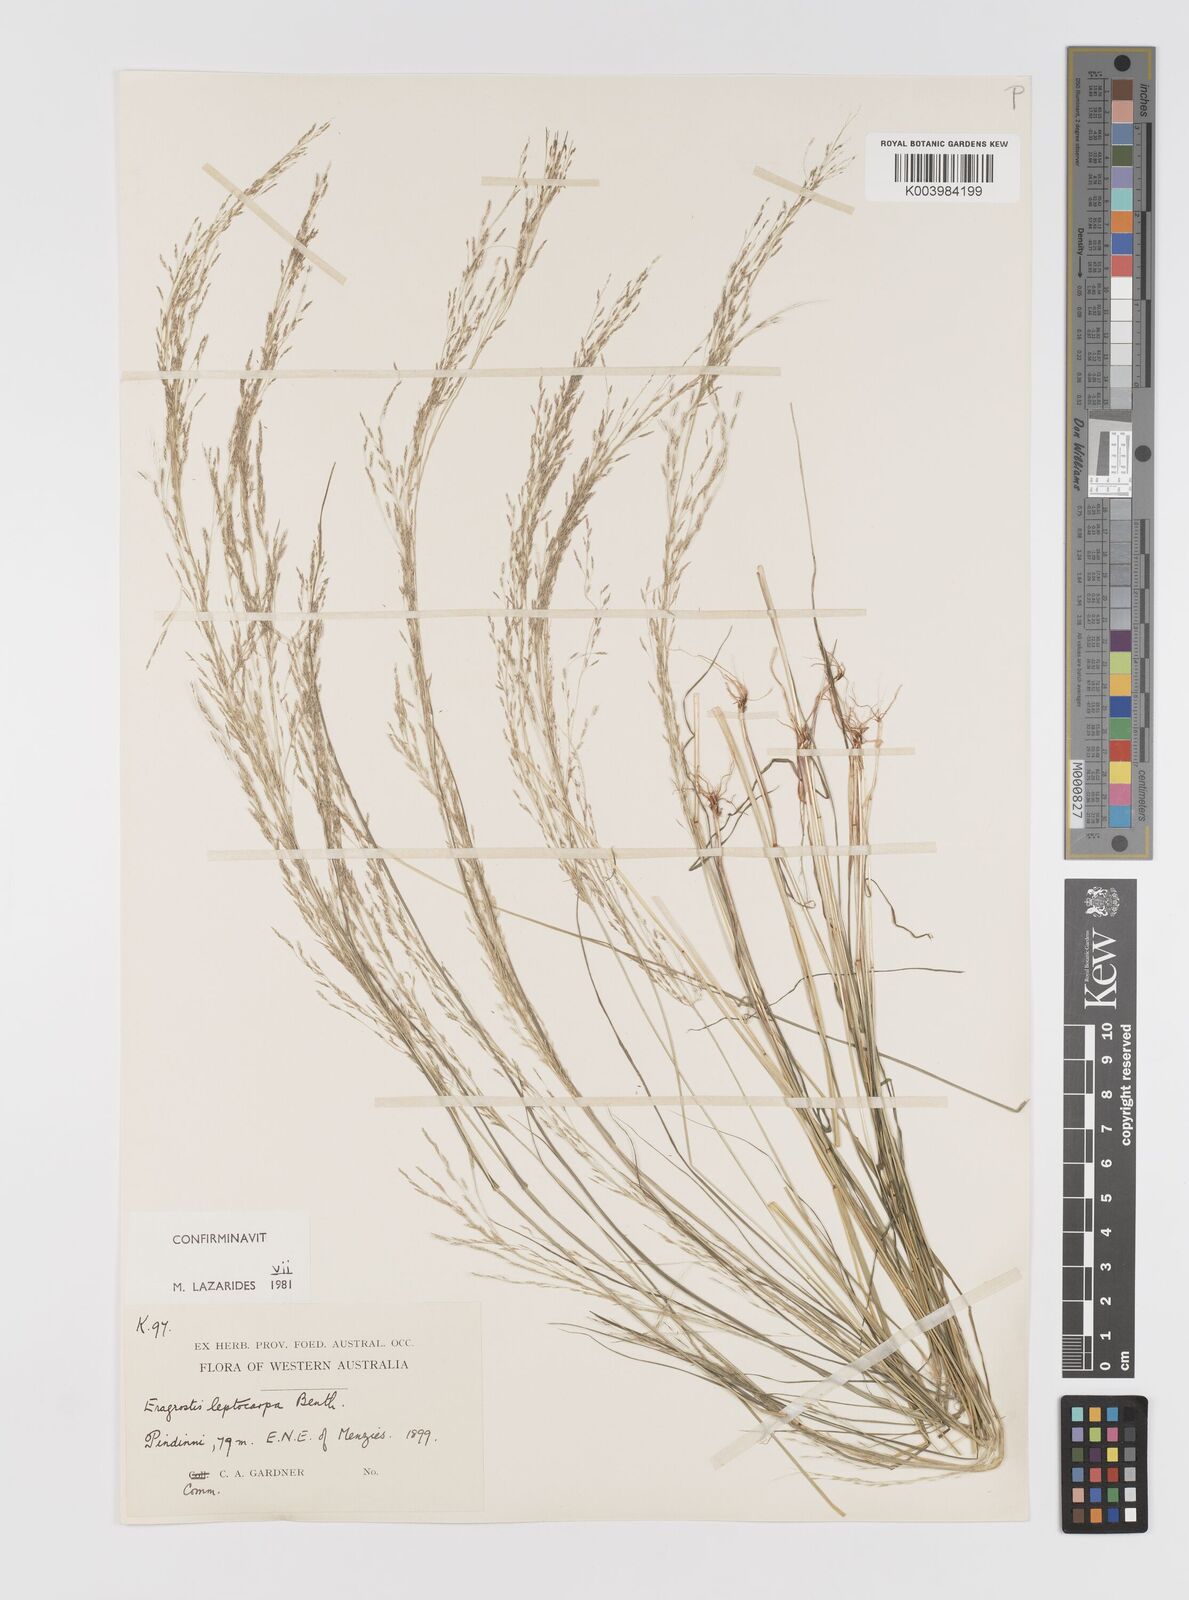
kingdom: Plantae
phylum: Tracheophyta
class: Liliopsida
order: Poales
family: Poaceae
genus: Eragrostis
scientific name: Eragrostis leptocarpa
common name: Drooping love grass
